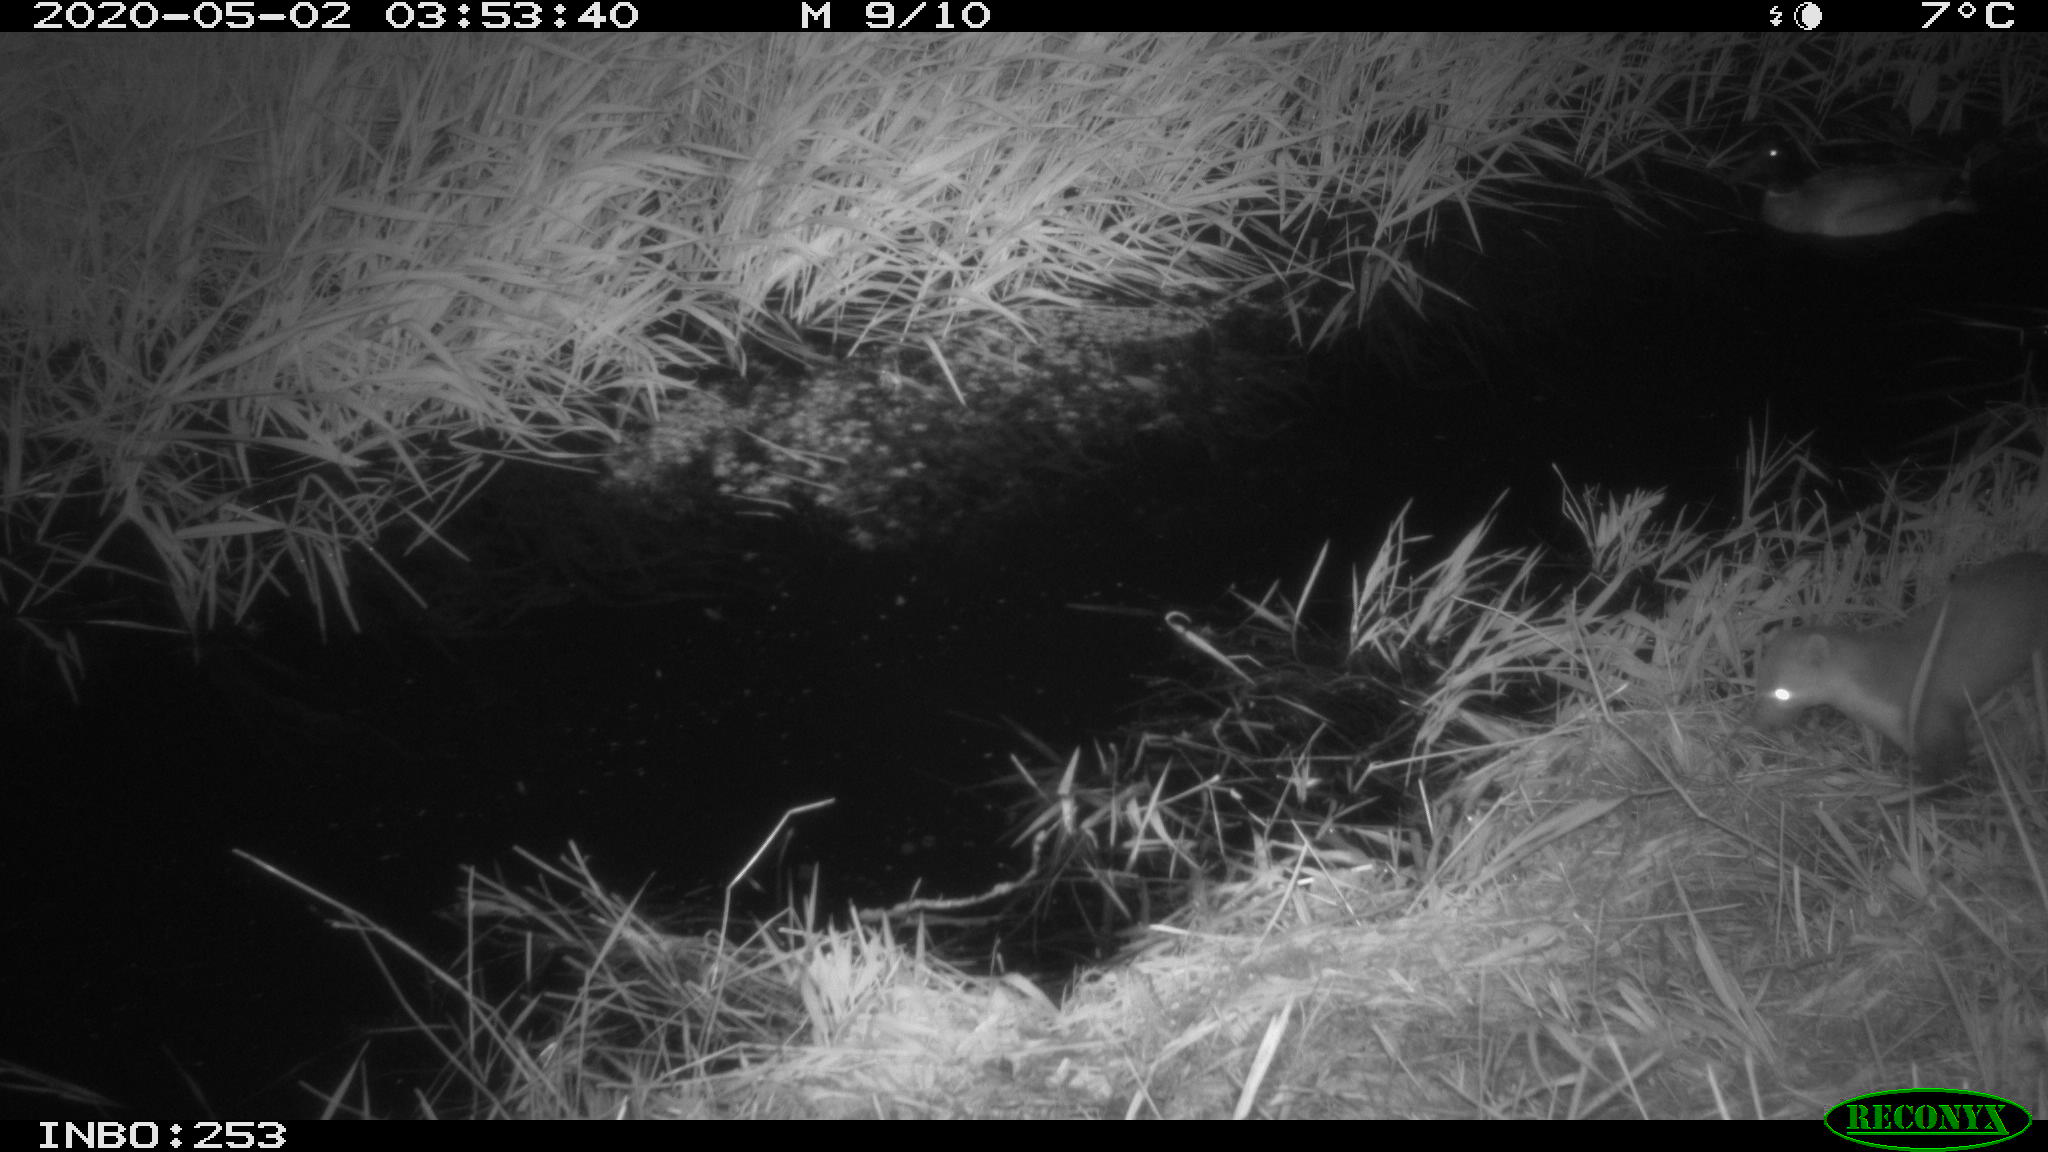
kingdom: Animalia
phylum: Chordata
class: Mammalia
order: Carnivora
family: Mustelidae
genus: Martes
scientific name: Martes foina
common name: Beech marten
